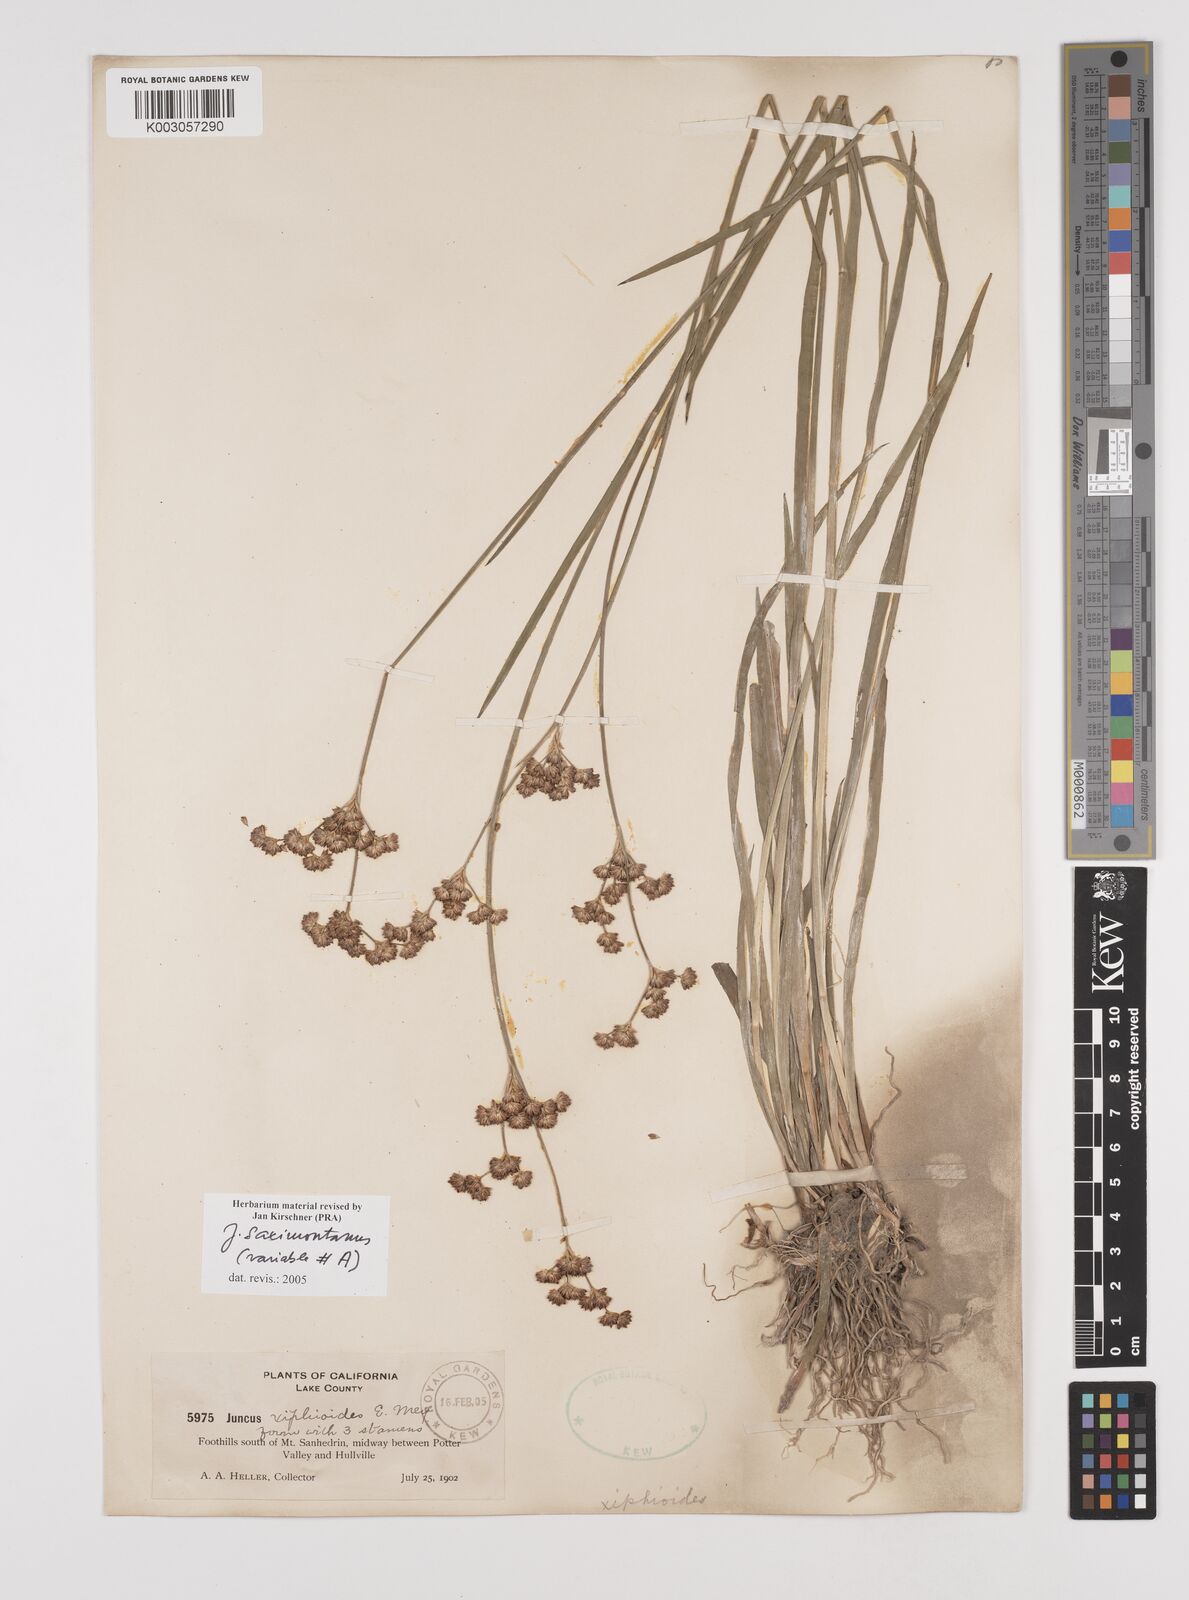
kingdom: Plantae
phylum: Tracheophyta
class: Liliopsida
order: Poales
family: Juncaceae
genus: Juncus
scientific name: Juncus saximontanus
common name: Rocky mountain rush
